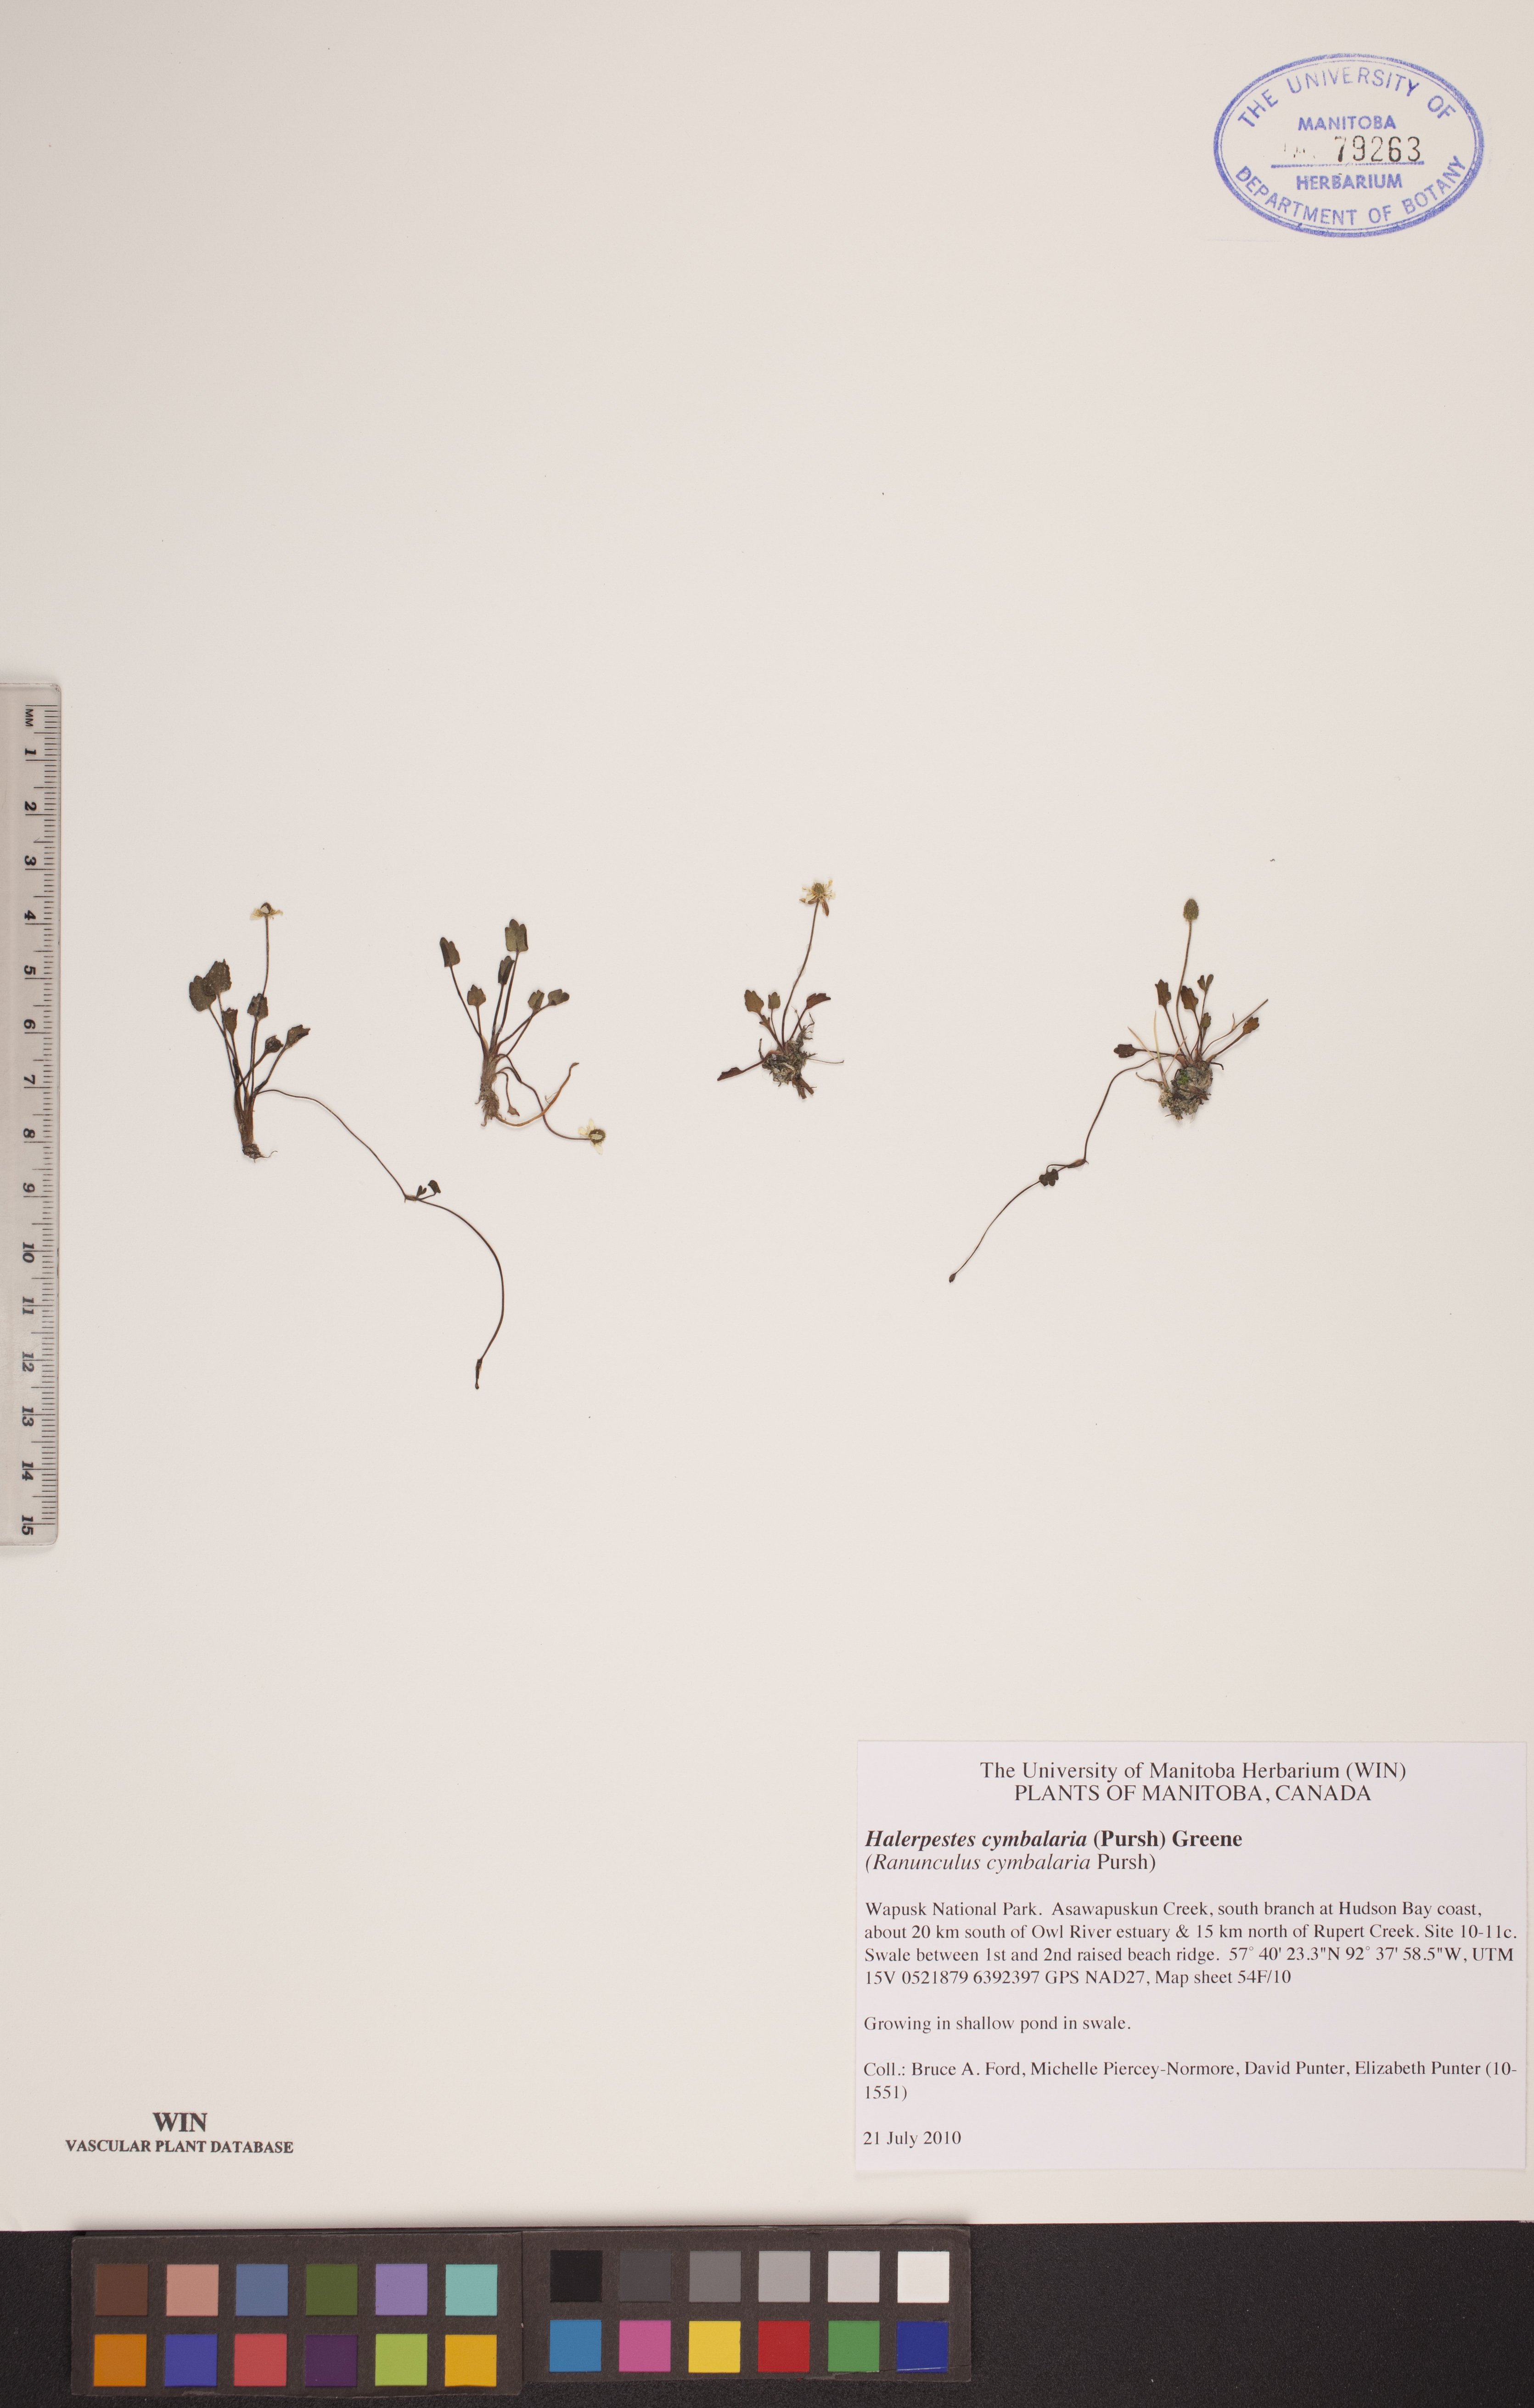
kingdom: Plantae
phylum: Tracheophyta
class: Magnoliopsida
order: Ranunculales
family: Ranunculaceae
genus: Halerpestes
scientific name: Halerpestes cymbalaria
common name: Seaside crowfoot
